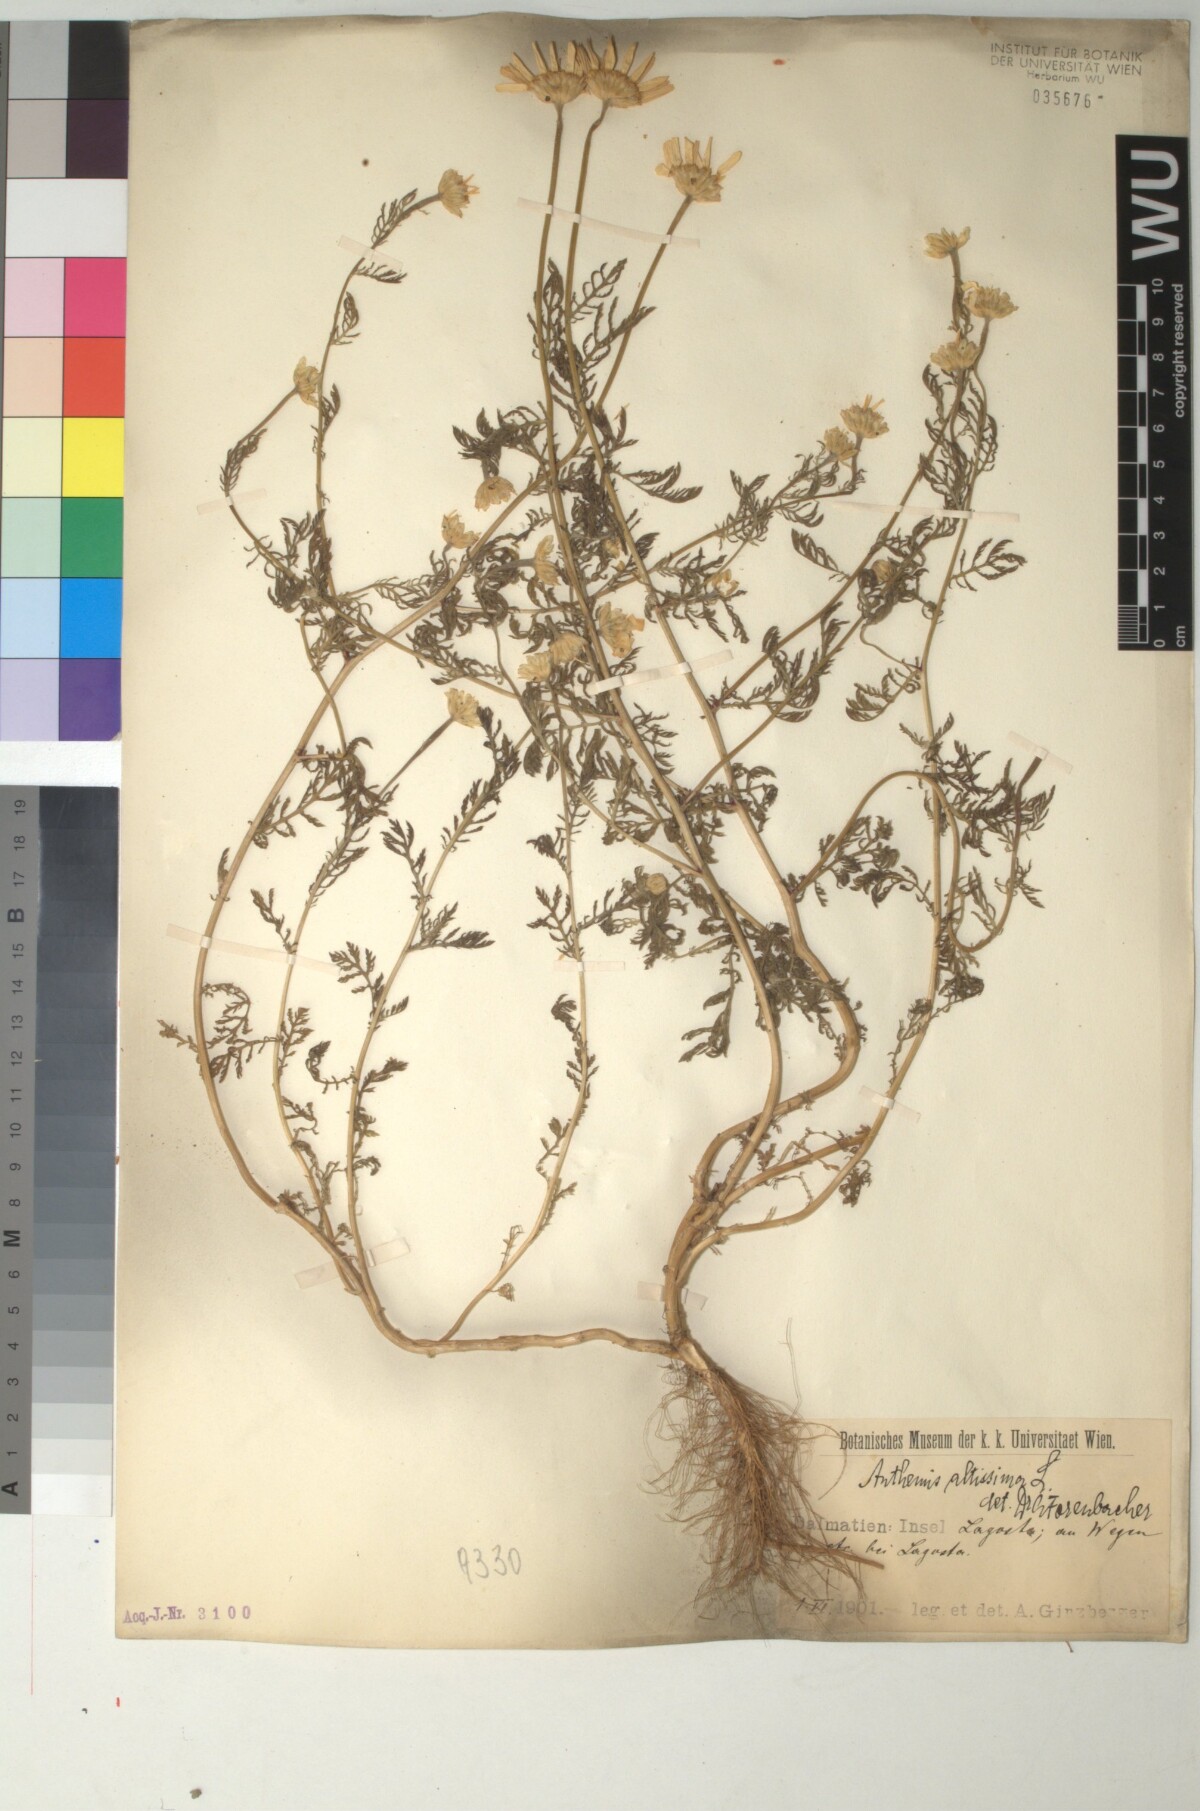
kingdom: Plantae
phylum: Tracheophyta
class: Magnoliopsida
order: Asterales
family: Asteraceae
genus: Cota
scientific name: Cota altissima
